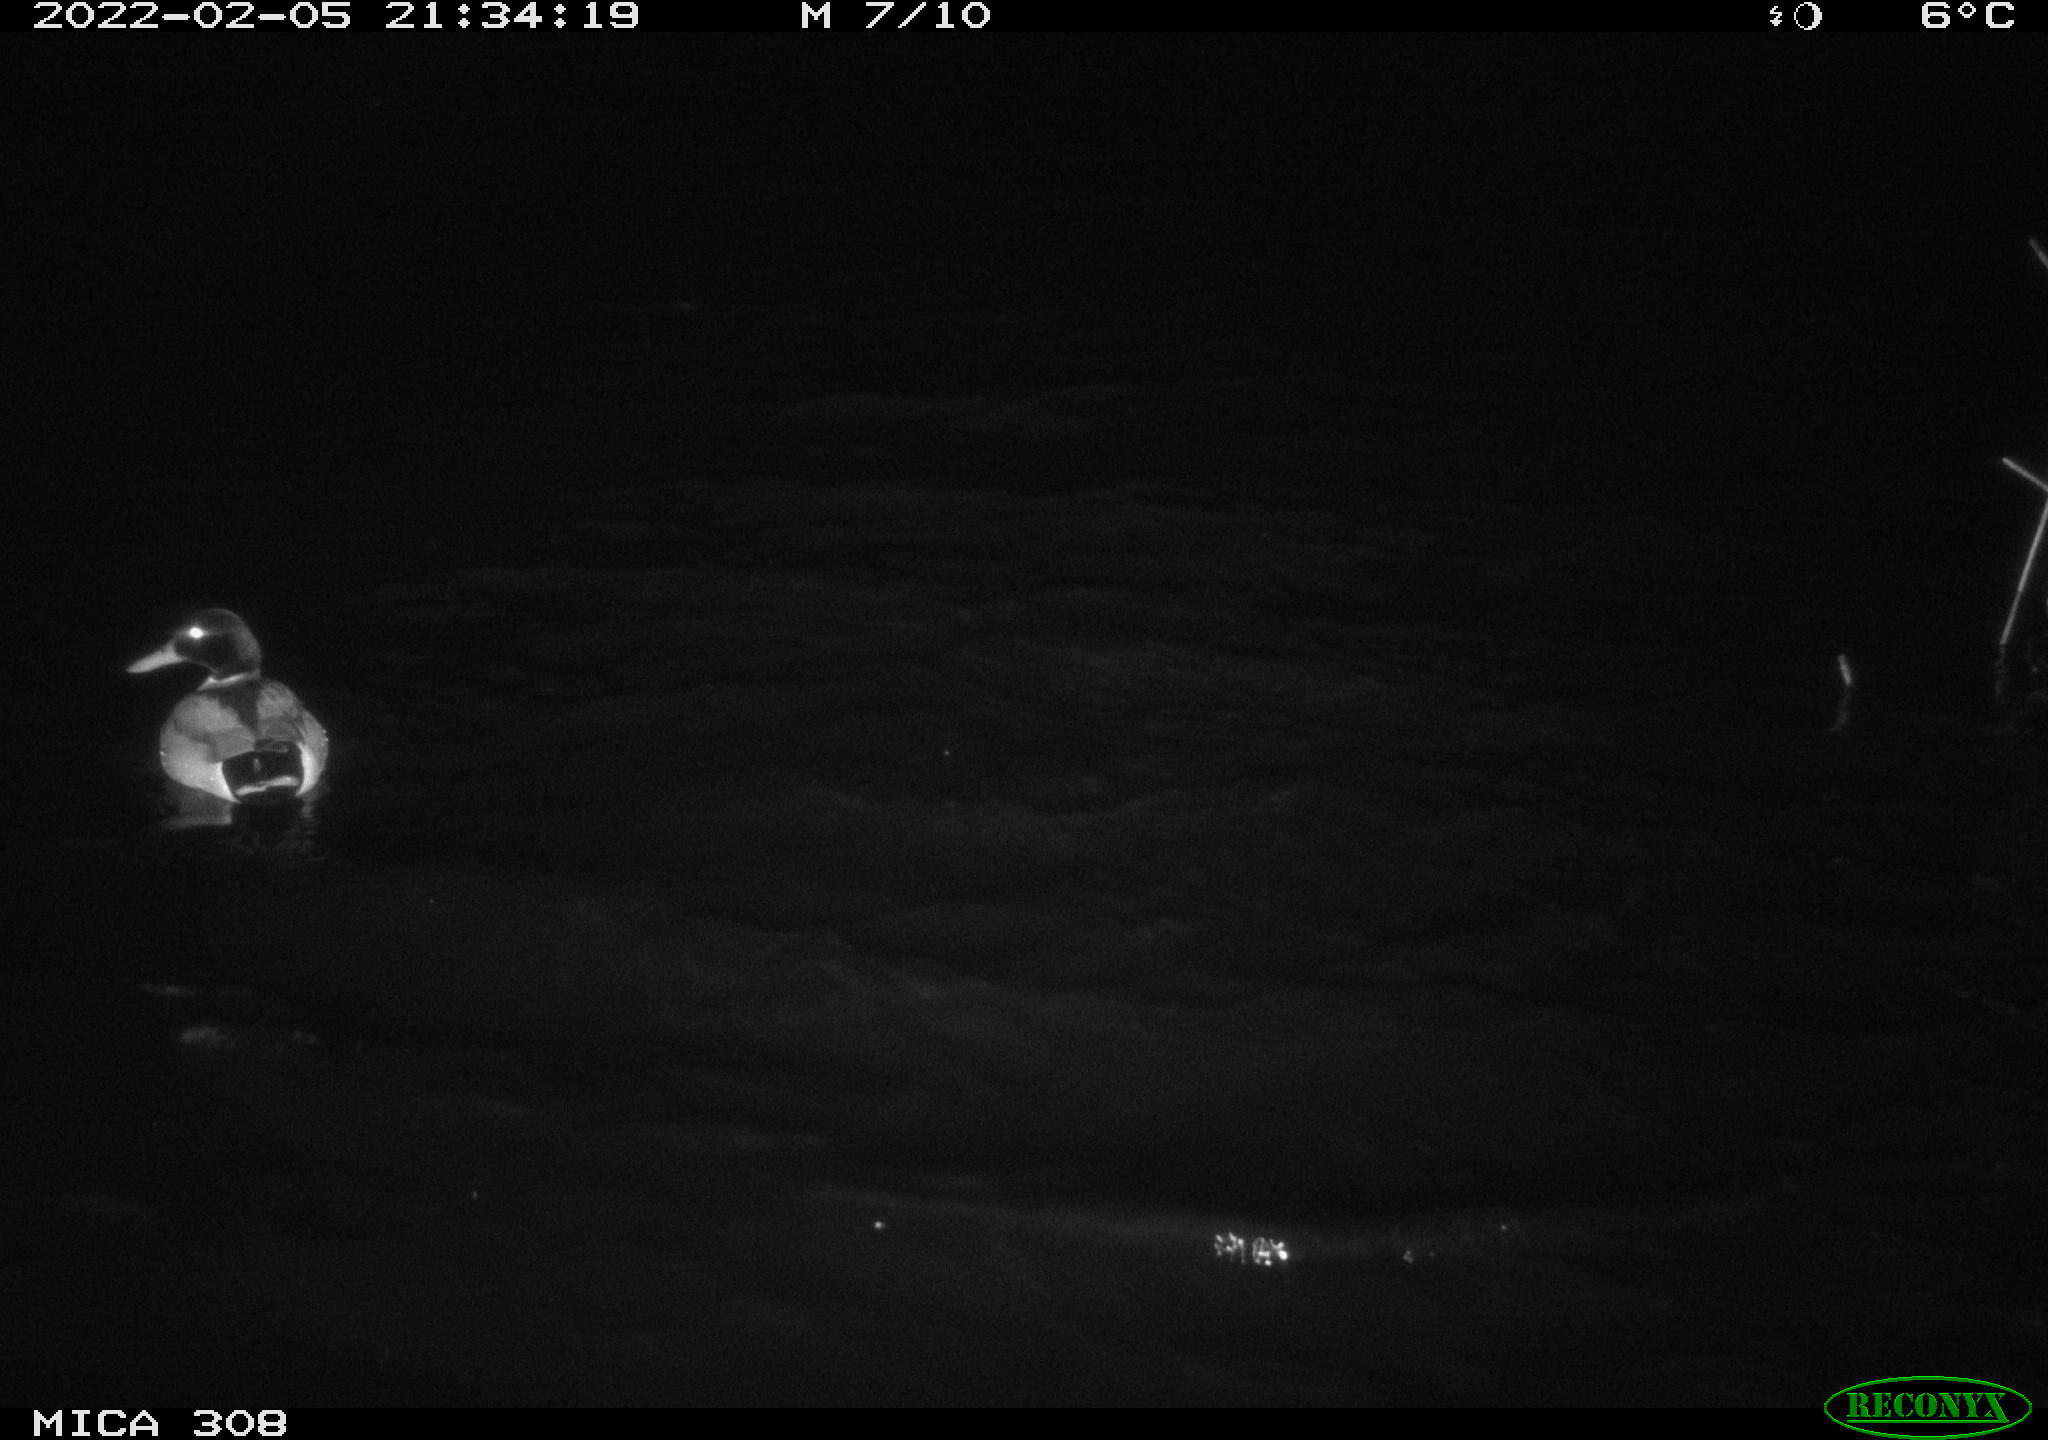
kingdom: Animalia
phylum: Chordata
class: Aves
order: Anseriformes
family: Anatidae
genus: Anas
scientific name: Anas platyrhynchos
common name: Mallard
